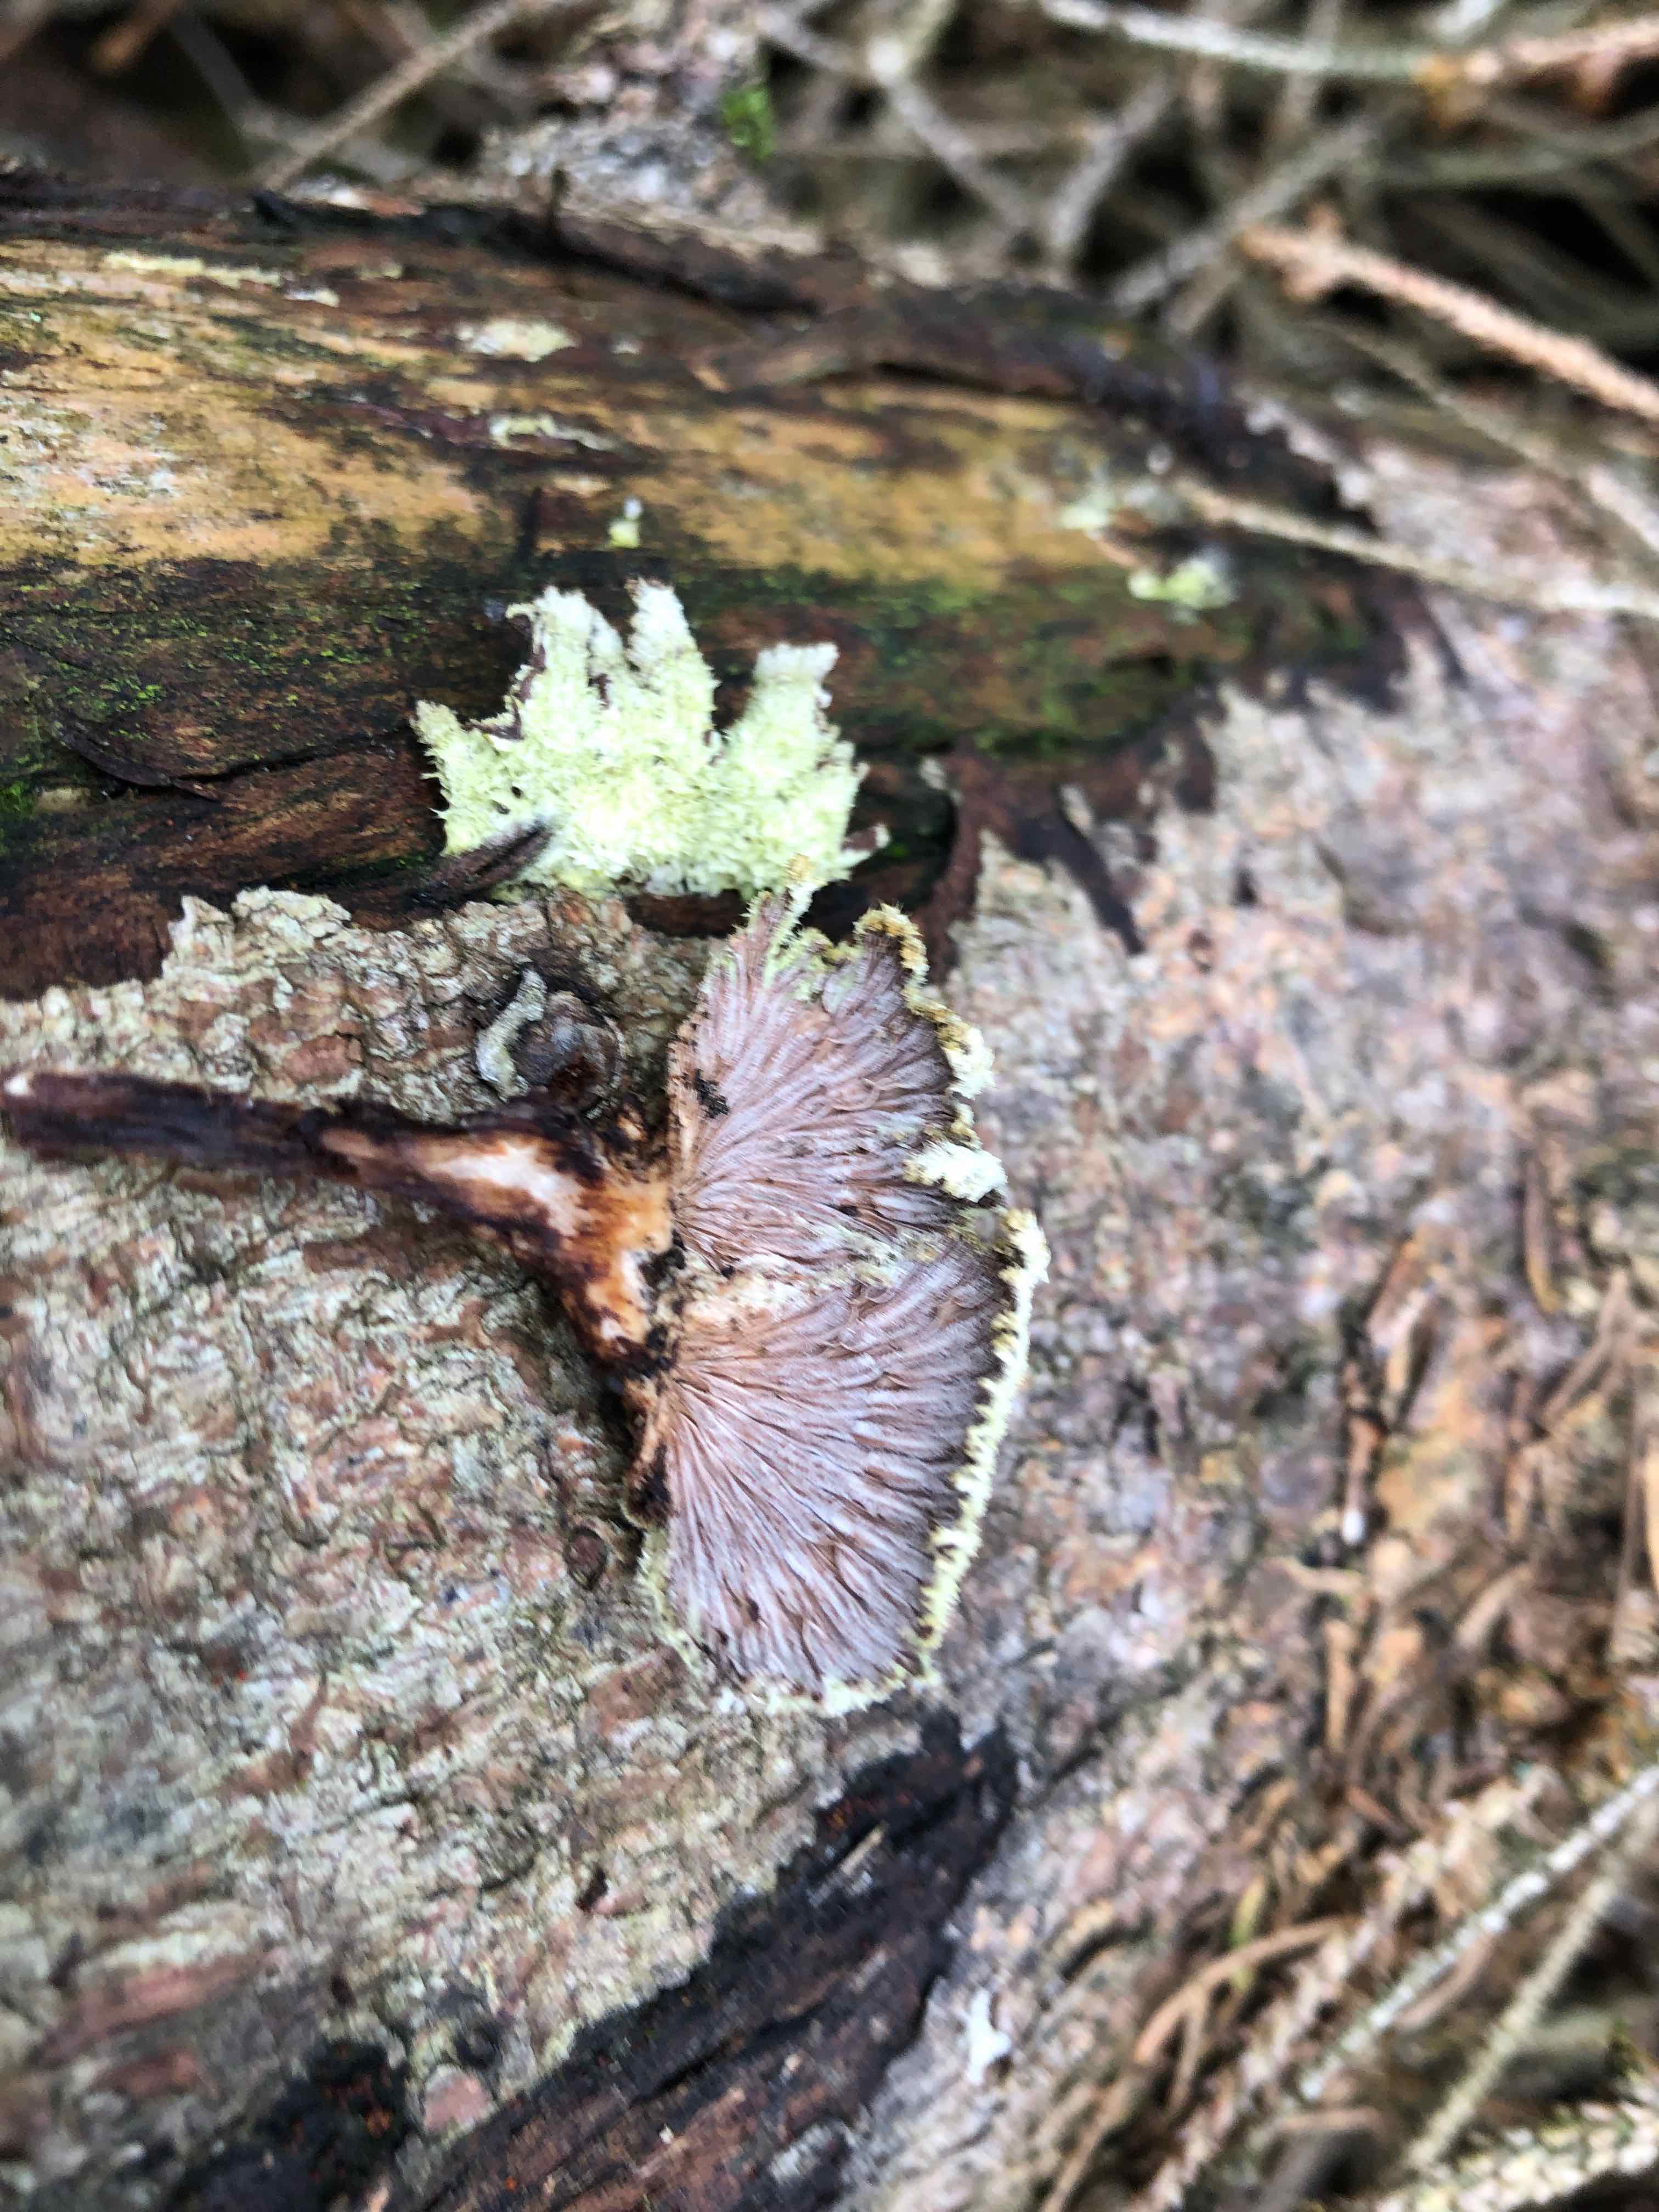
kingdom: Fungi
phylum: Basidiomycota
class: Agaricomycetes
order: Agaricales
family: Schizophyllaceae
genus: Schizophyllum
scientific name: Schizophyllum commune
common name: kløvblad
